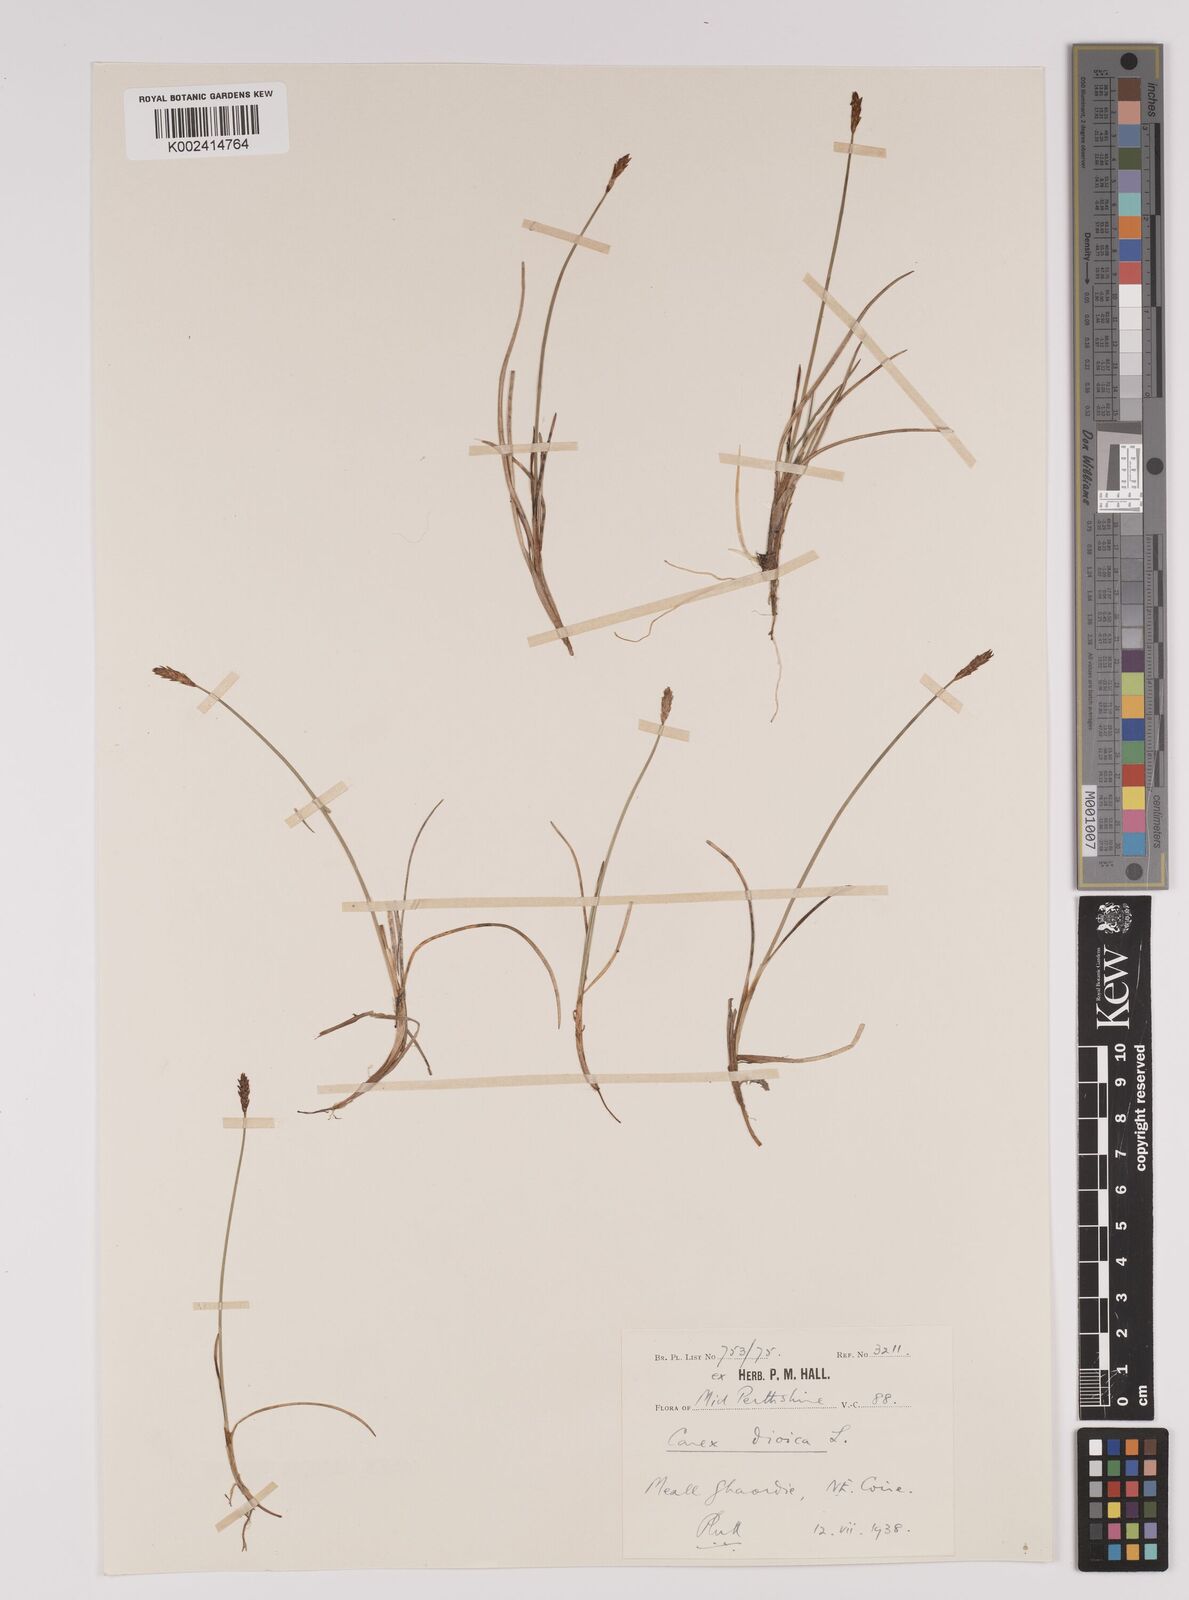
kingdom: Plantae
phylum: Tracheophyta
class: Liliopsida
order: Poales
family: Cyperaceae
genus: Carex
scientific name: Carex dioica
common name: Dioecious sedge
